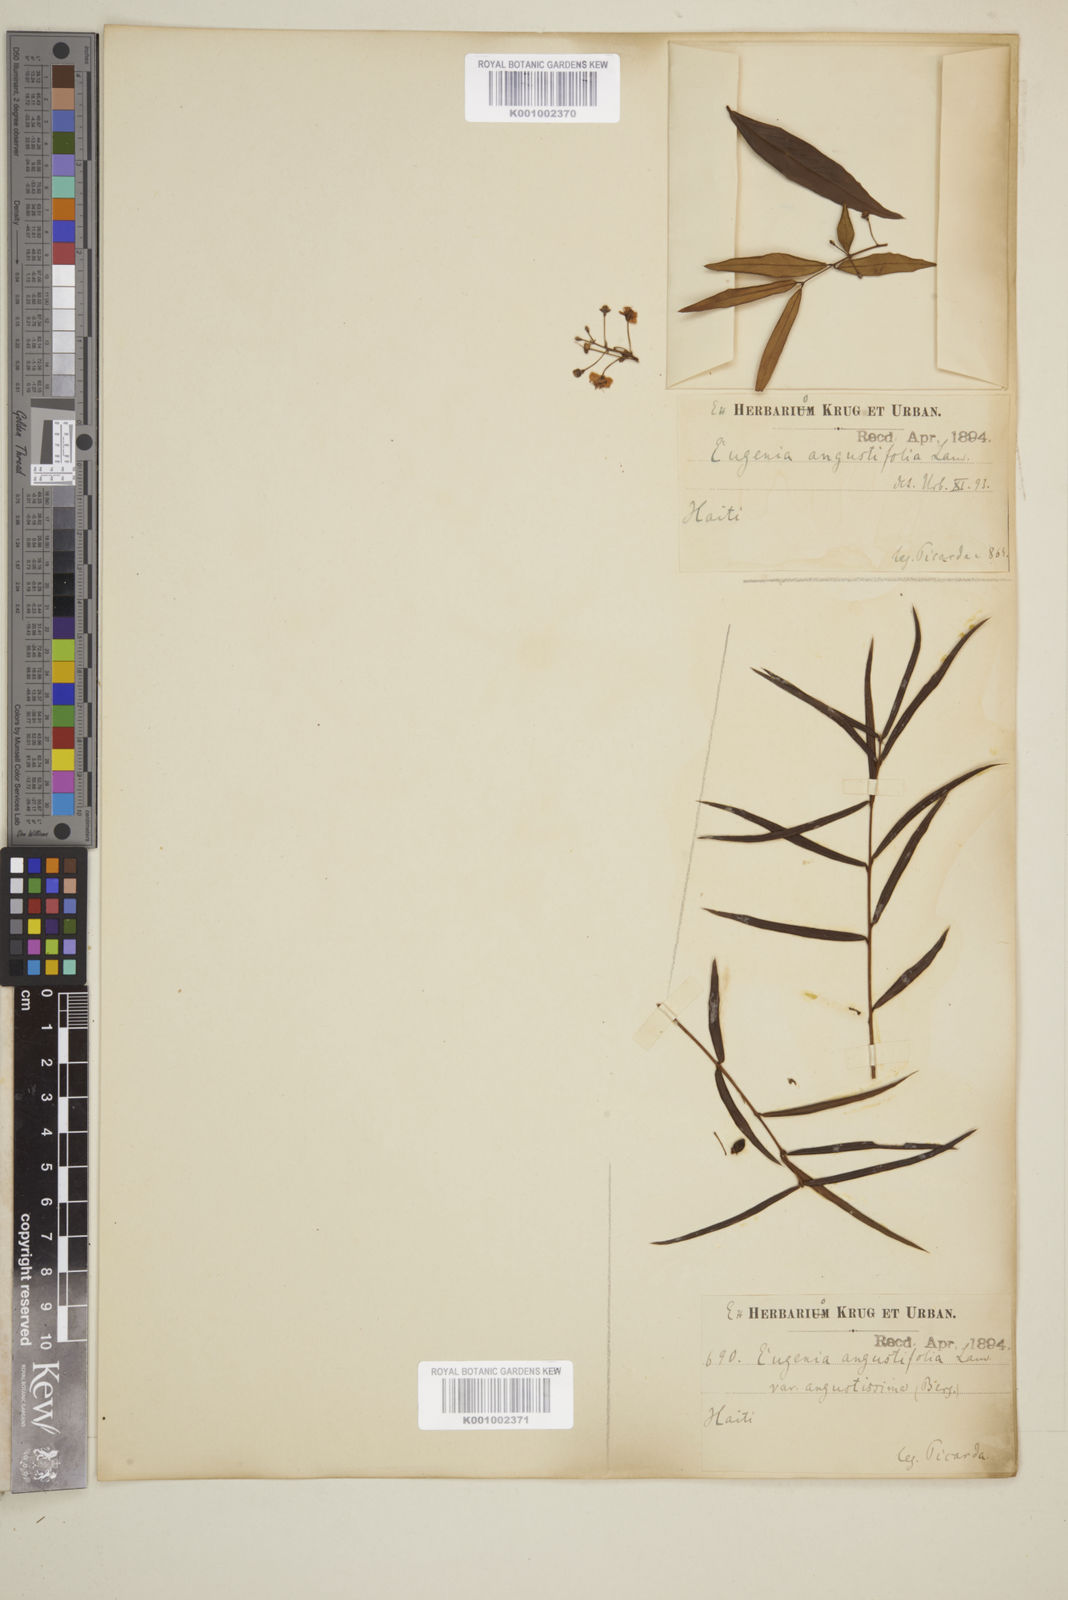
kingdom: Plantae
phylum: Tracheophyta
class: Magnoliopsida
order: Myrtales
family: Myrtaceae
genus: Eugenia
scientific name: Eugenia pomifera
